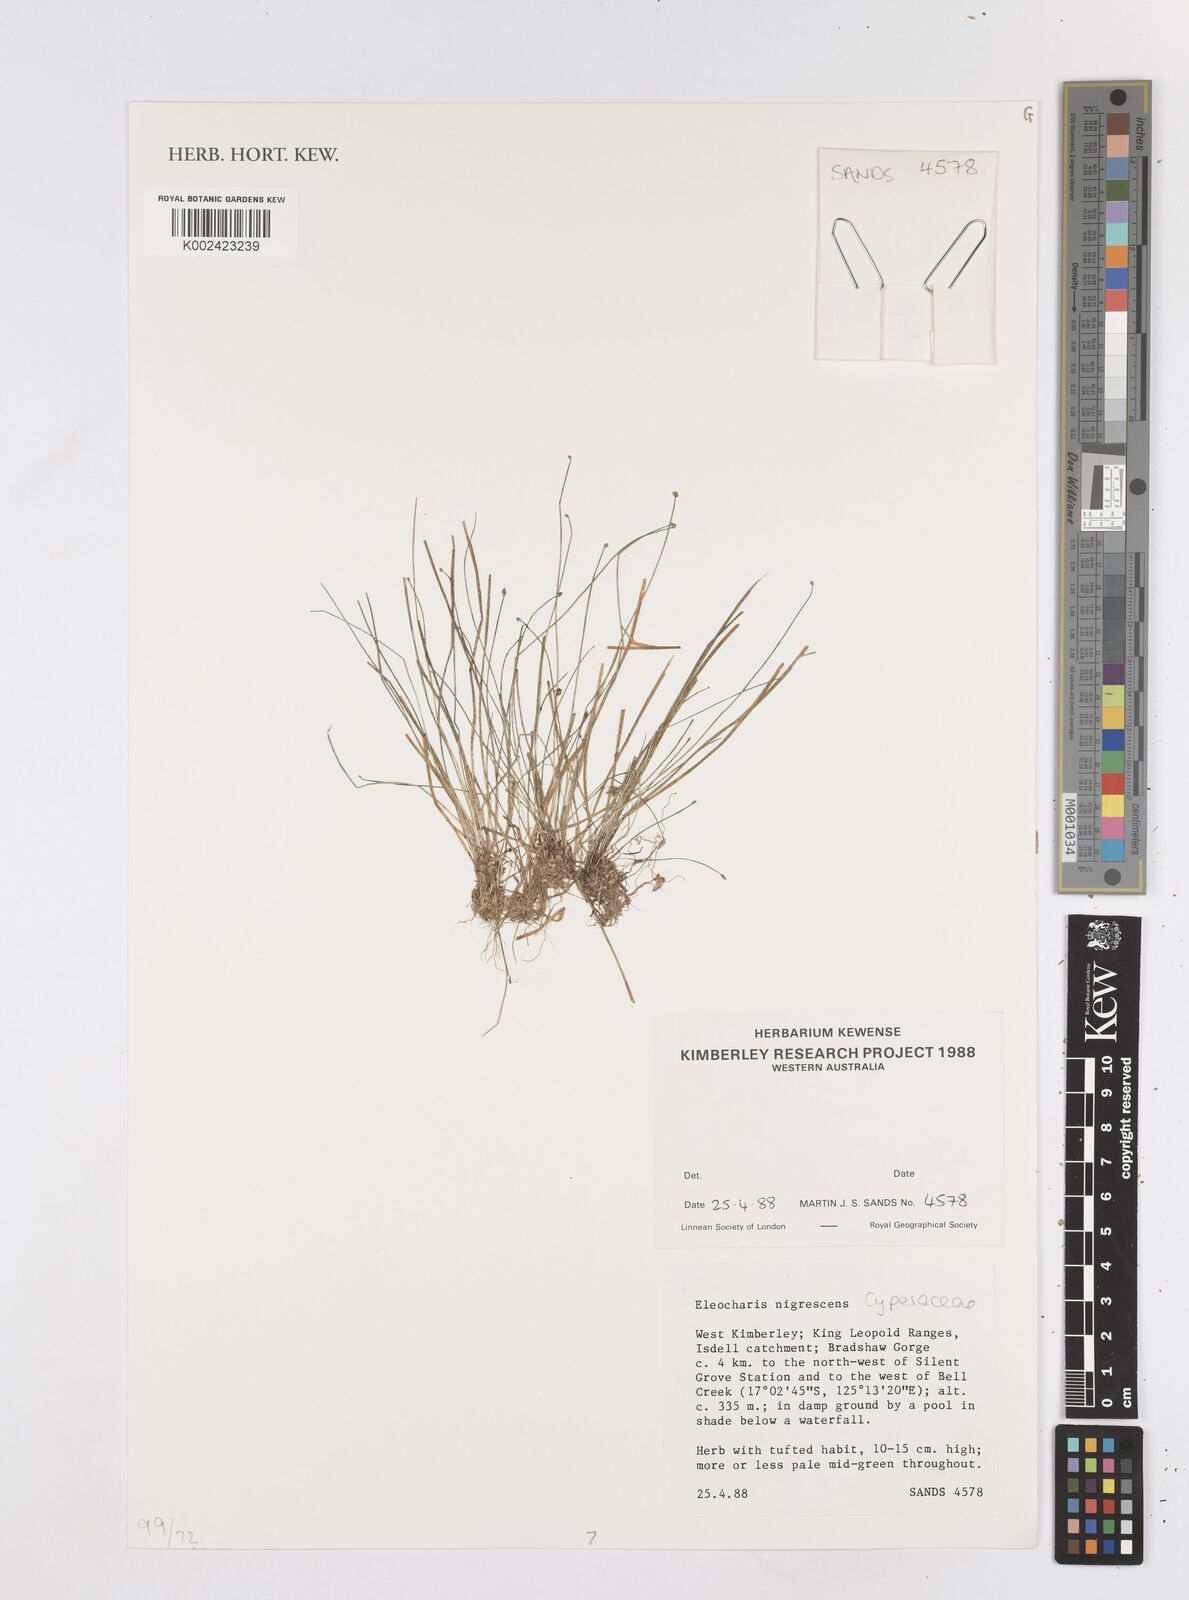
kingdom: Plantae
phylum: Tracheophyta
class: Liliopsida
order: Poales
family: Cyperaceae
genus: Eleocharis
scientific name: Eleocharis nigrescens
